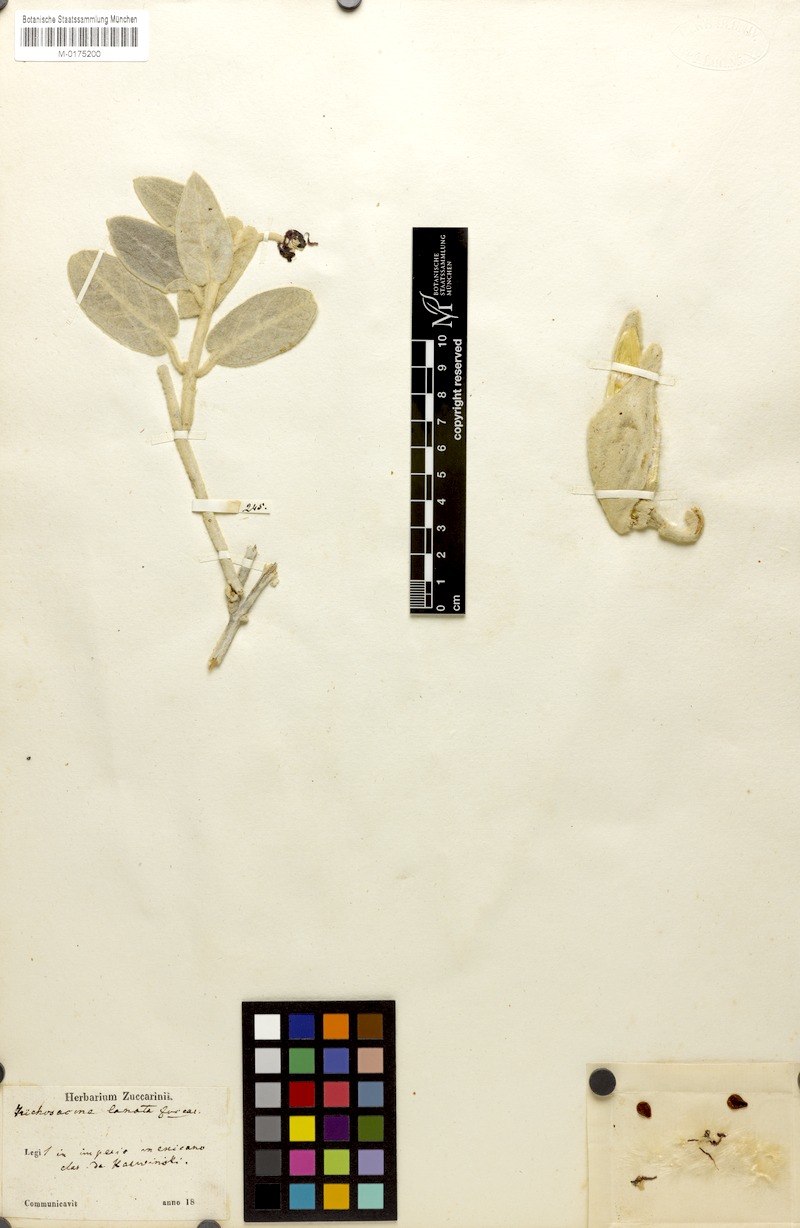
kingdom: Plantae
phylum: Tracheophyta
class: Magnoliopsida
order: Gentianales
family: Apocynaceae
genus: Trichosacme
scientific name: Trichosacme lanata
